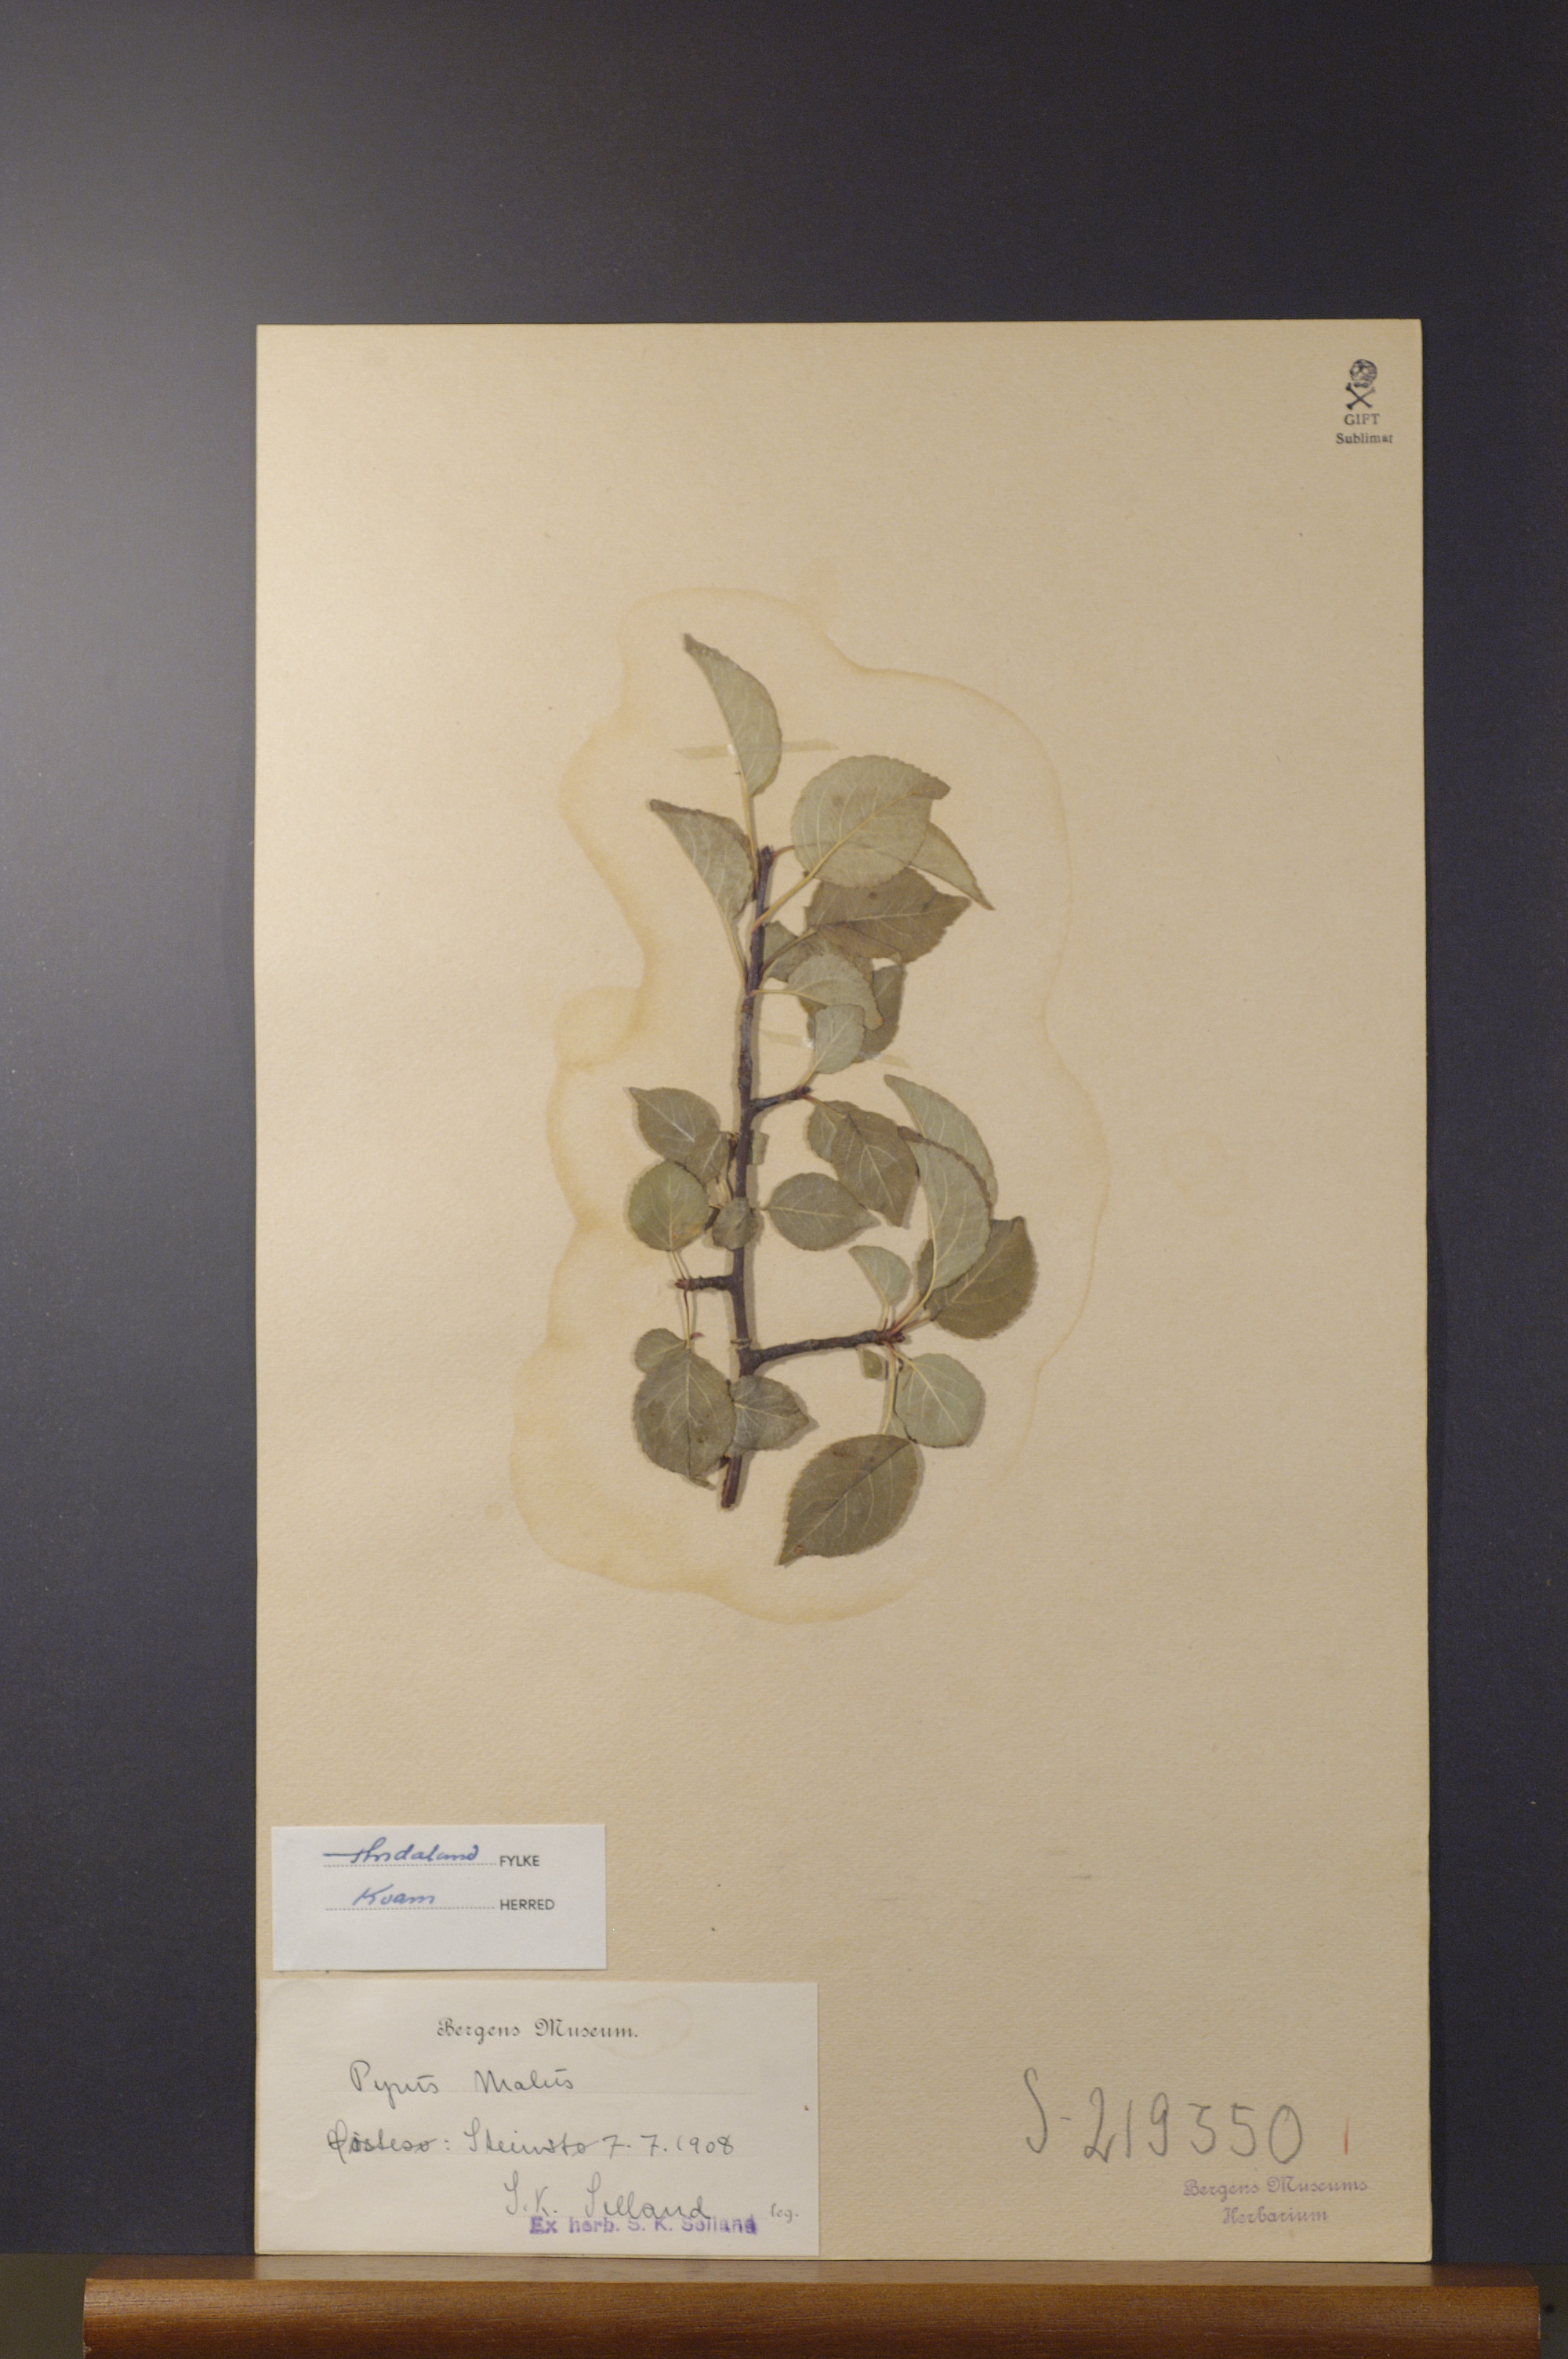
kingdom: Plantae
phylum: Tracheophyta
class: Magnoliopsida
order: Rosales
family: Rosaceae
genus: Malus
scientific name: Malus domestica
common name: Apple
